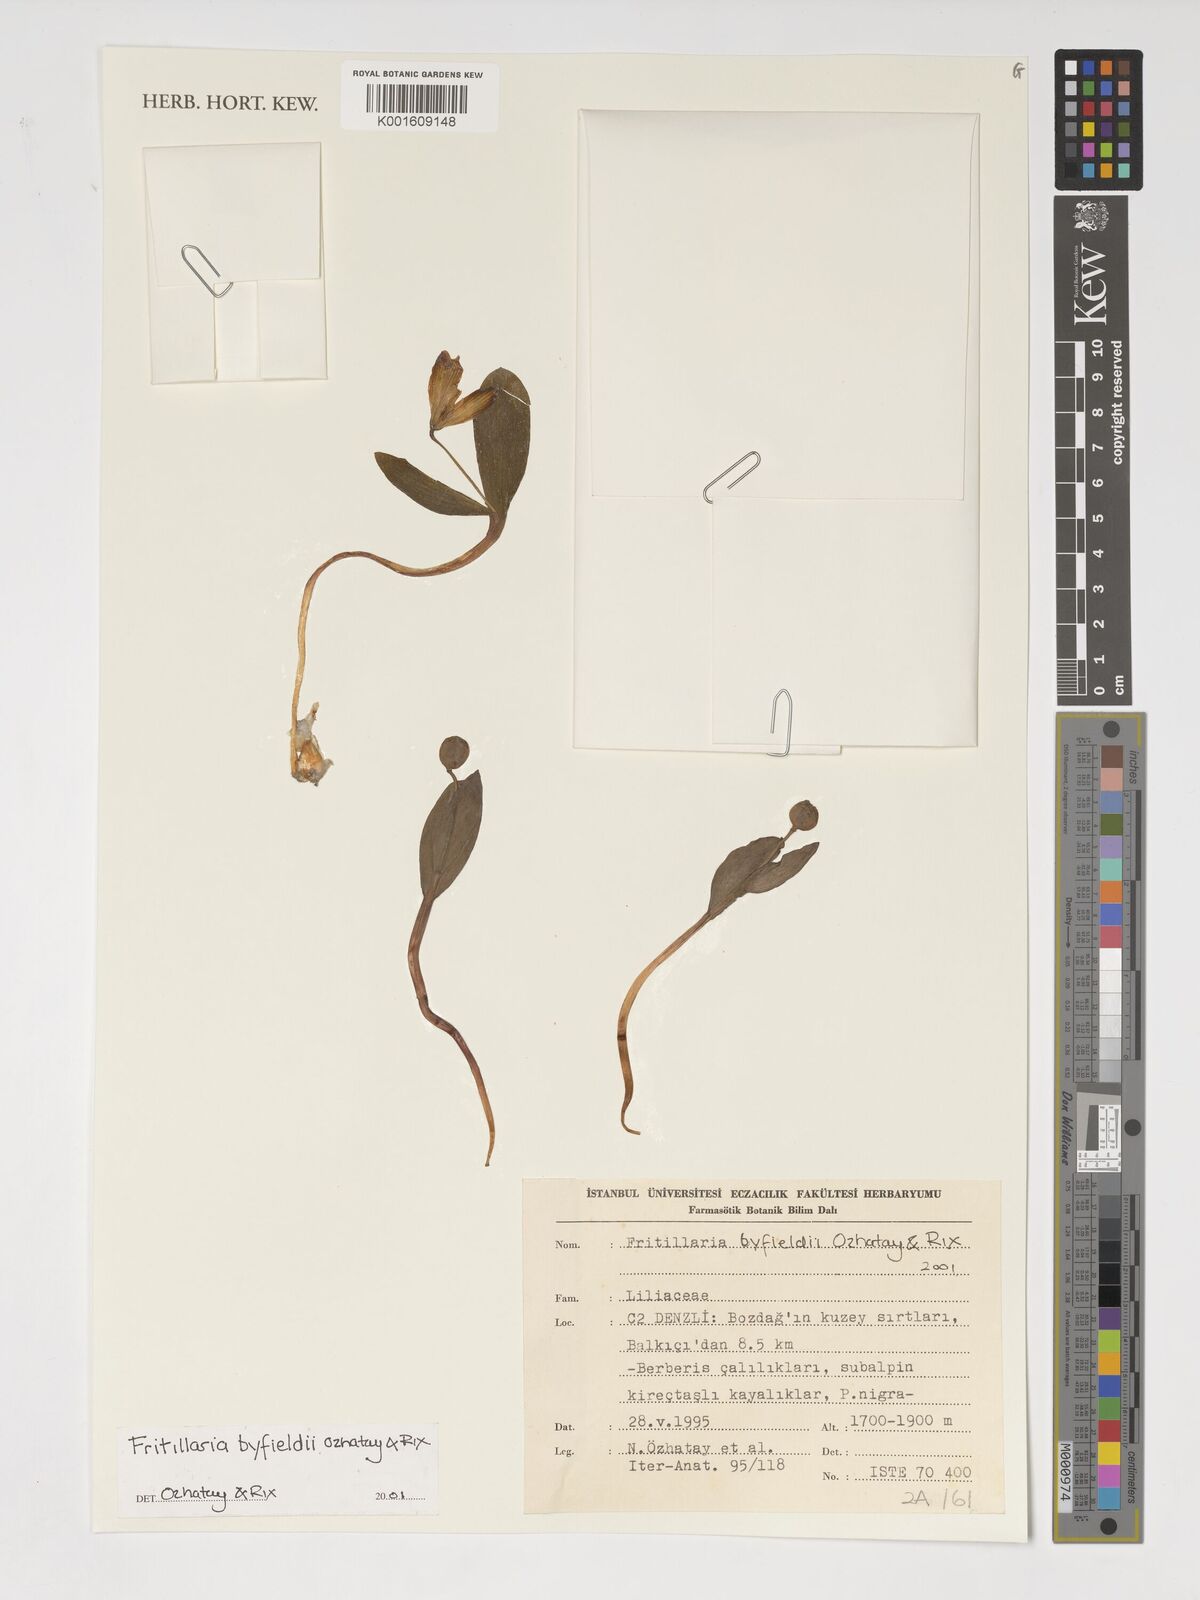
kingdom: Plantae
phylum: Tracheophyta
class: Liliopsida
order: Liliales
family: Liliaceae
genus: Fritillaria
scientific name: Fritillaria byfieldii
